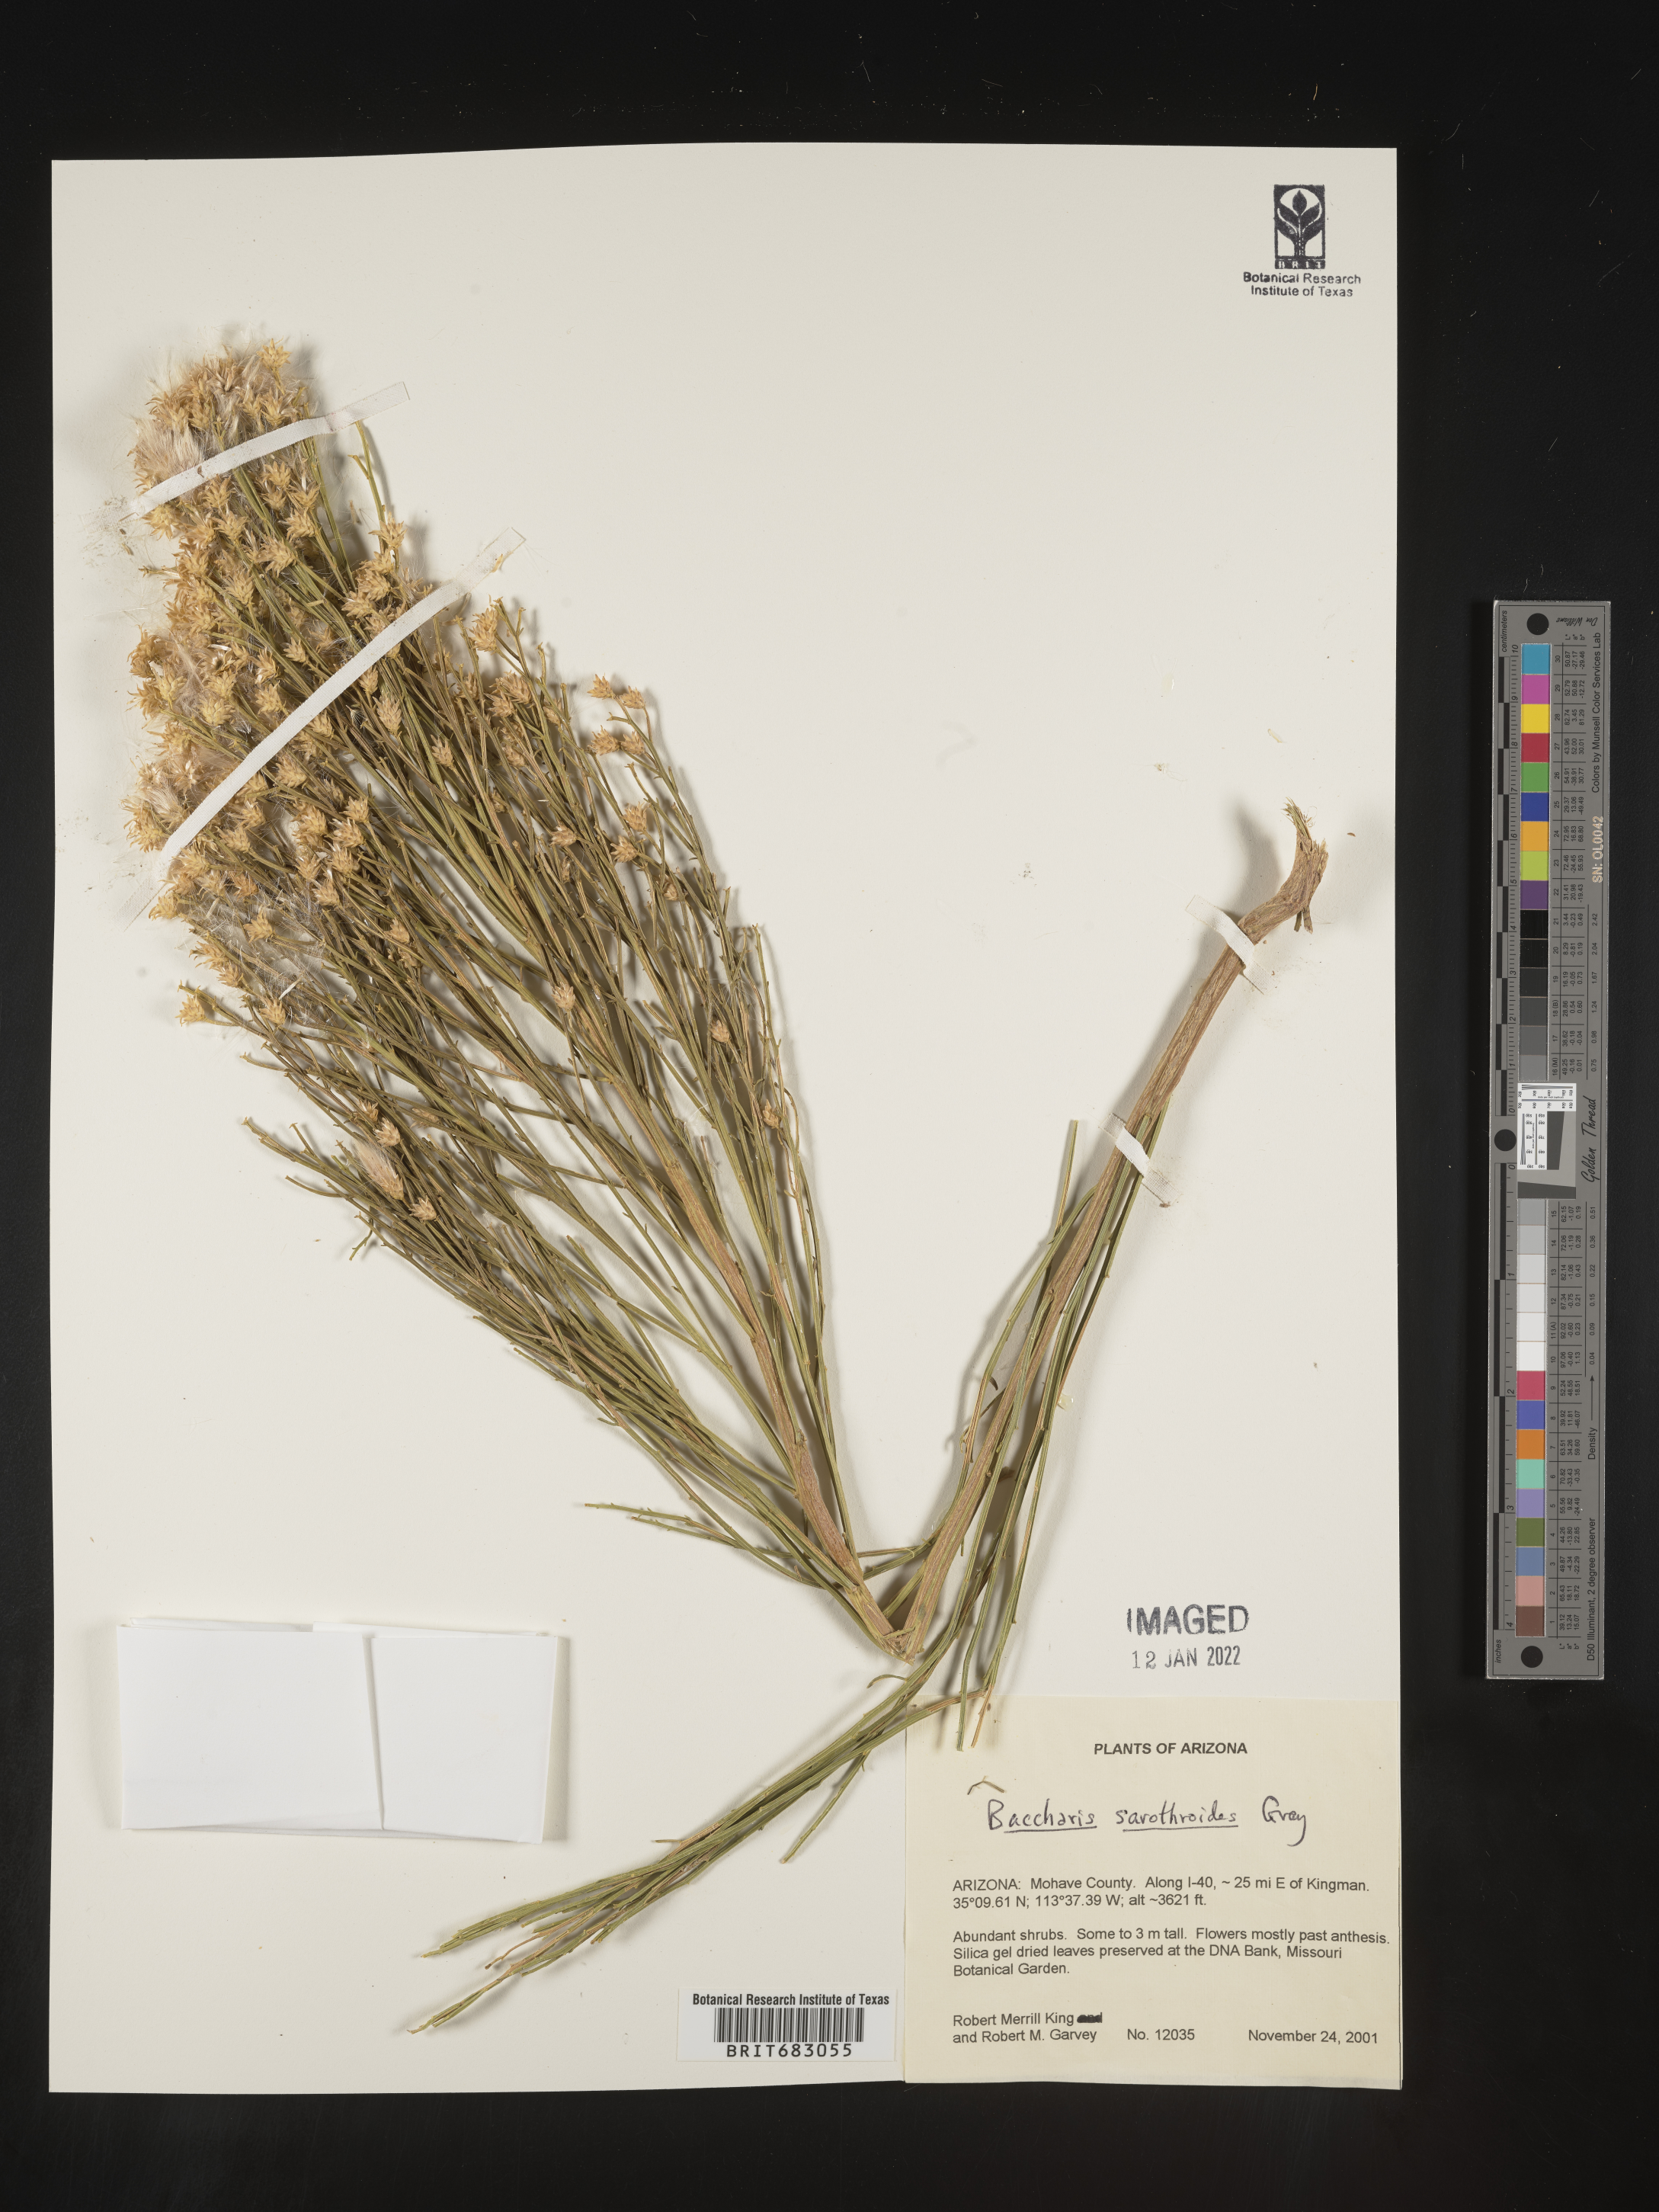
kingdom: Plantae
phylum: Tracheophyta
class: Magnoliopsida
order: Asterales
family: Asteraceae
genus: Baccharis
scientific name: Baccharis sarothroides
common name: Desert-broom
